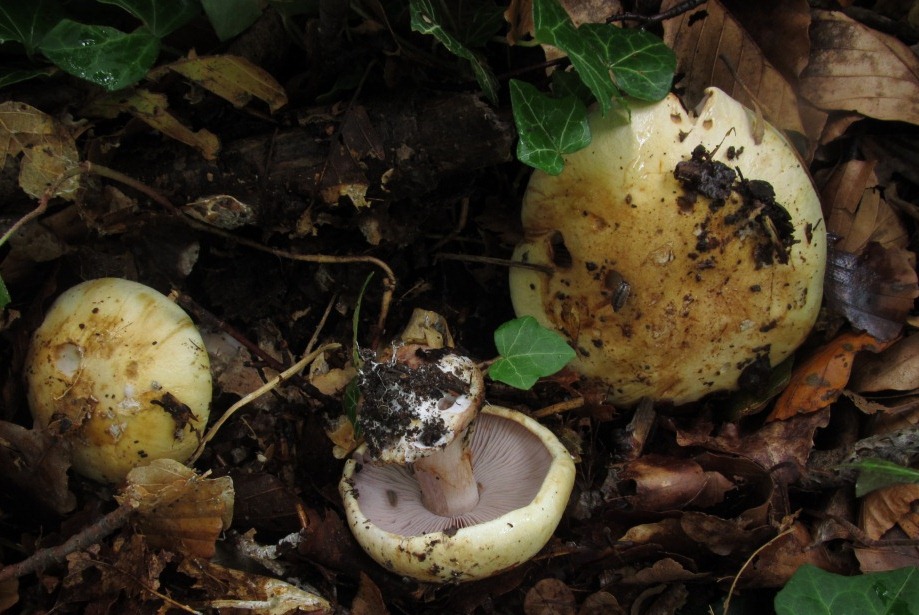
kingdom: Fungi
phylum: Basidiomycota
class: Agaricomycetes
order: Agaricales
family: Cortinariaceae
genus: Calonarius
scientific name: Calonarius platypus
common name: platfodet slørhat
